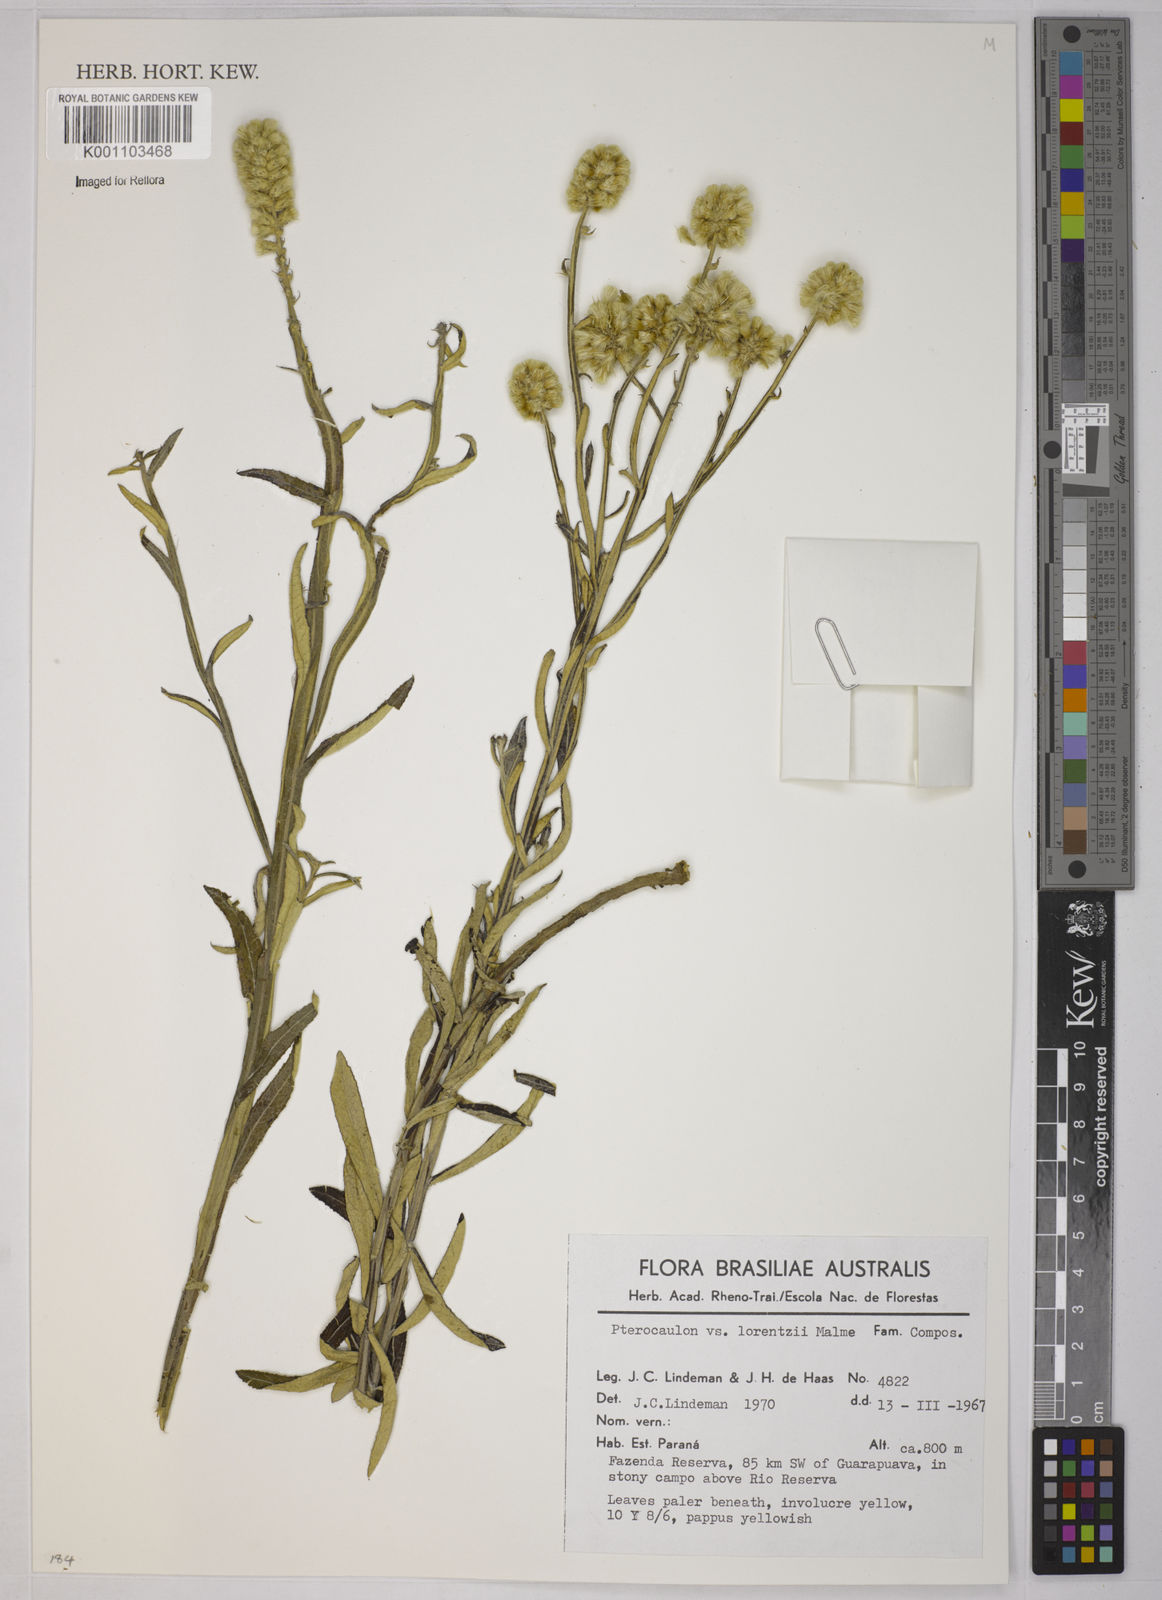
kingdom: Plantae
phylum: Tracheophyta
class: Magnoliopsida
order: Asterales
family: Asteraceae
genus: Pterocaulon
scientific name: Pterocaulon lorentzii
